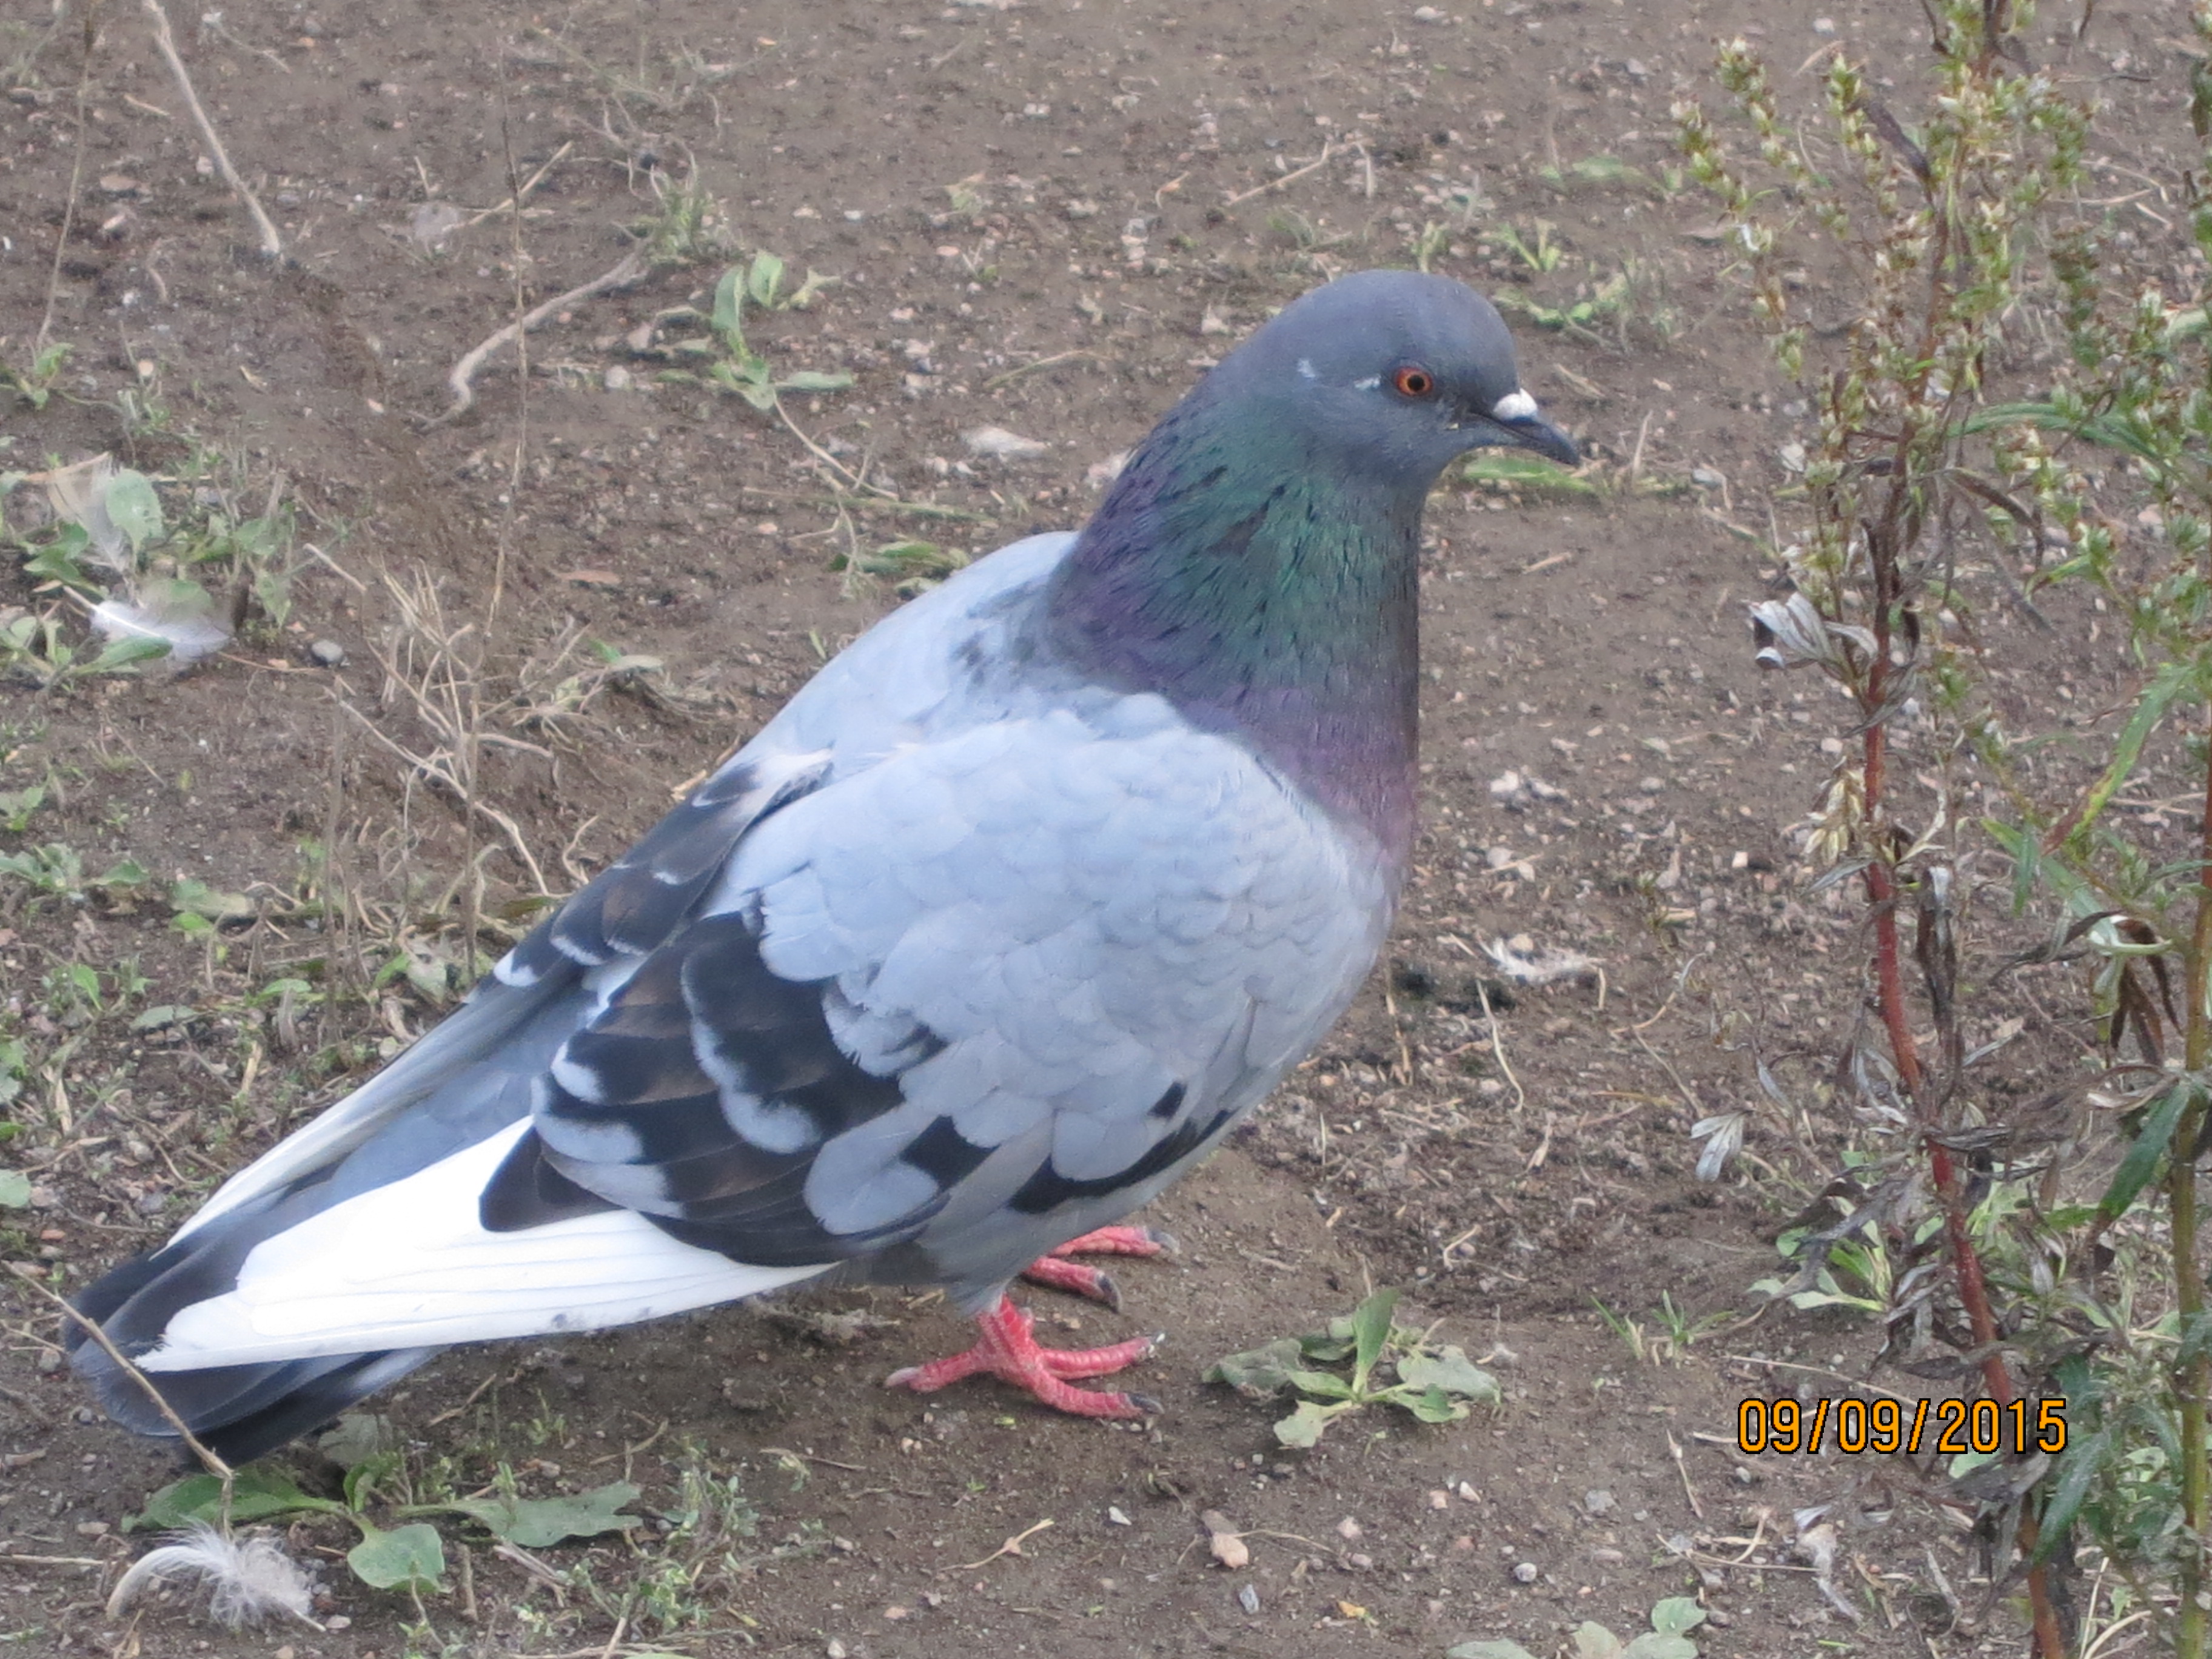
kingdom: Animalia
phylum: Chordata
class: Aves
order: Columbiformes
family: Columbidae
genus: Columba
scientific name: Columba livia
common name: Rock pigeon
